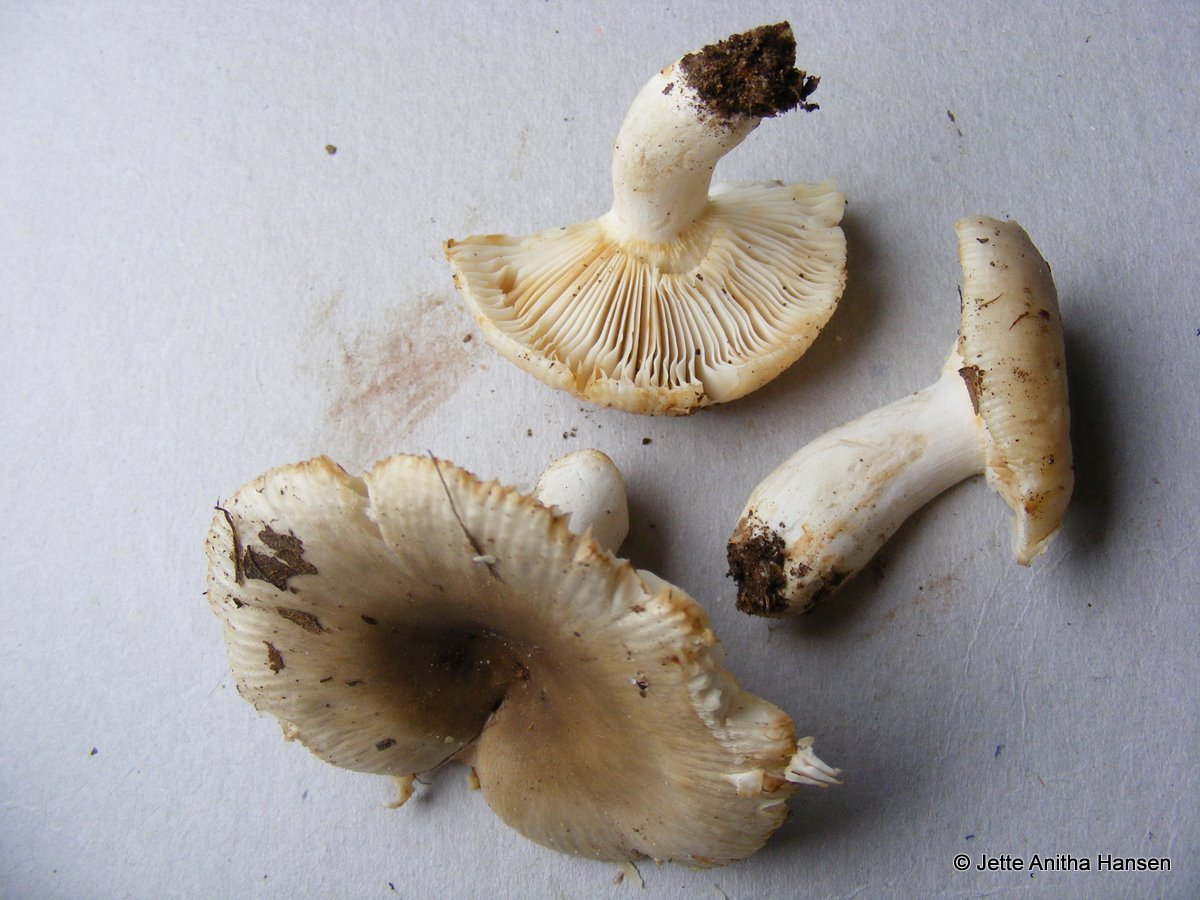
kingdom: Fungi
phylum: Basidiomycota
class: Agaricomycetes
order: Russulales
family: Russulaceae
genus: Russula
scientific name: Russula amoenolens
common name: skarp kam-skørhat
